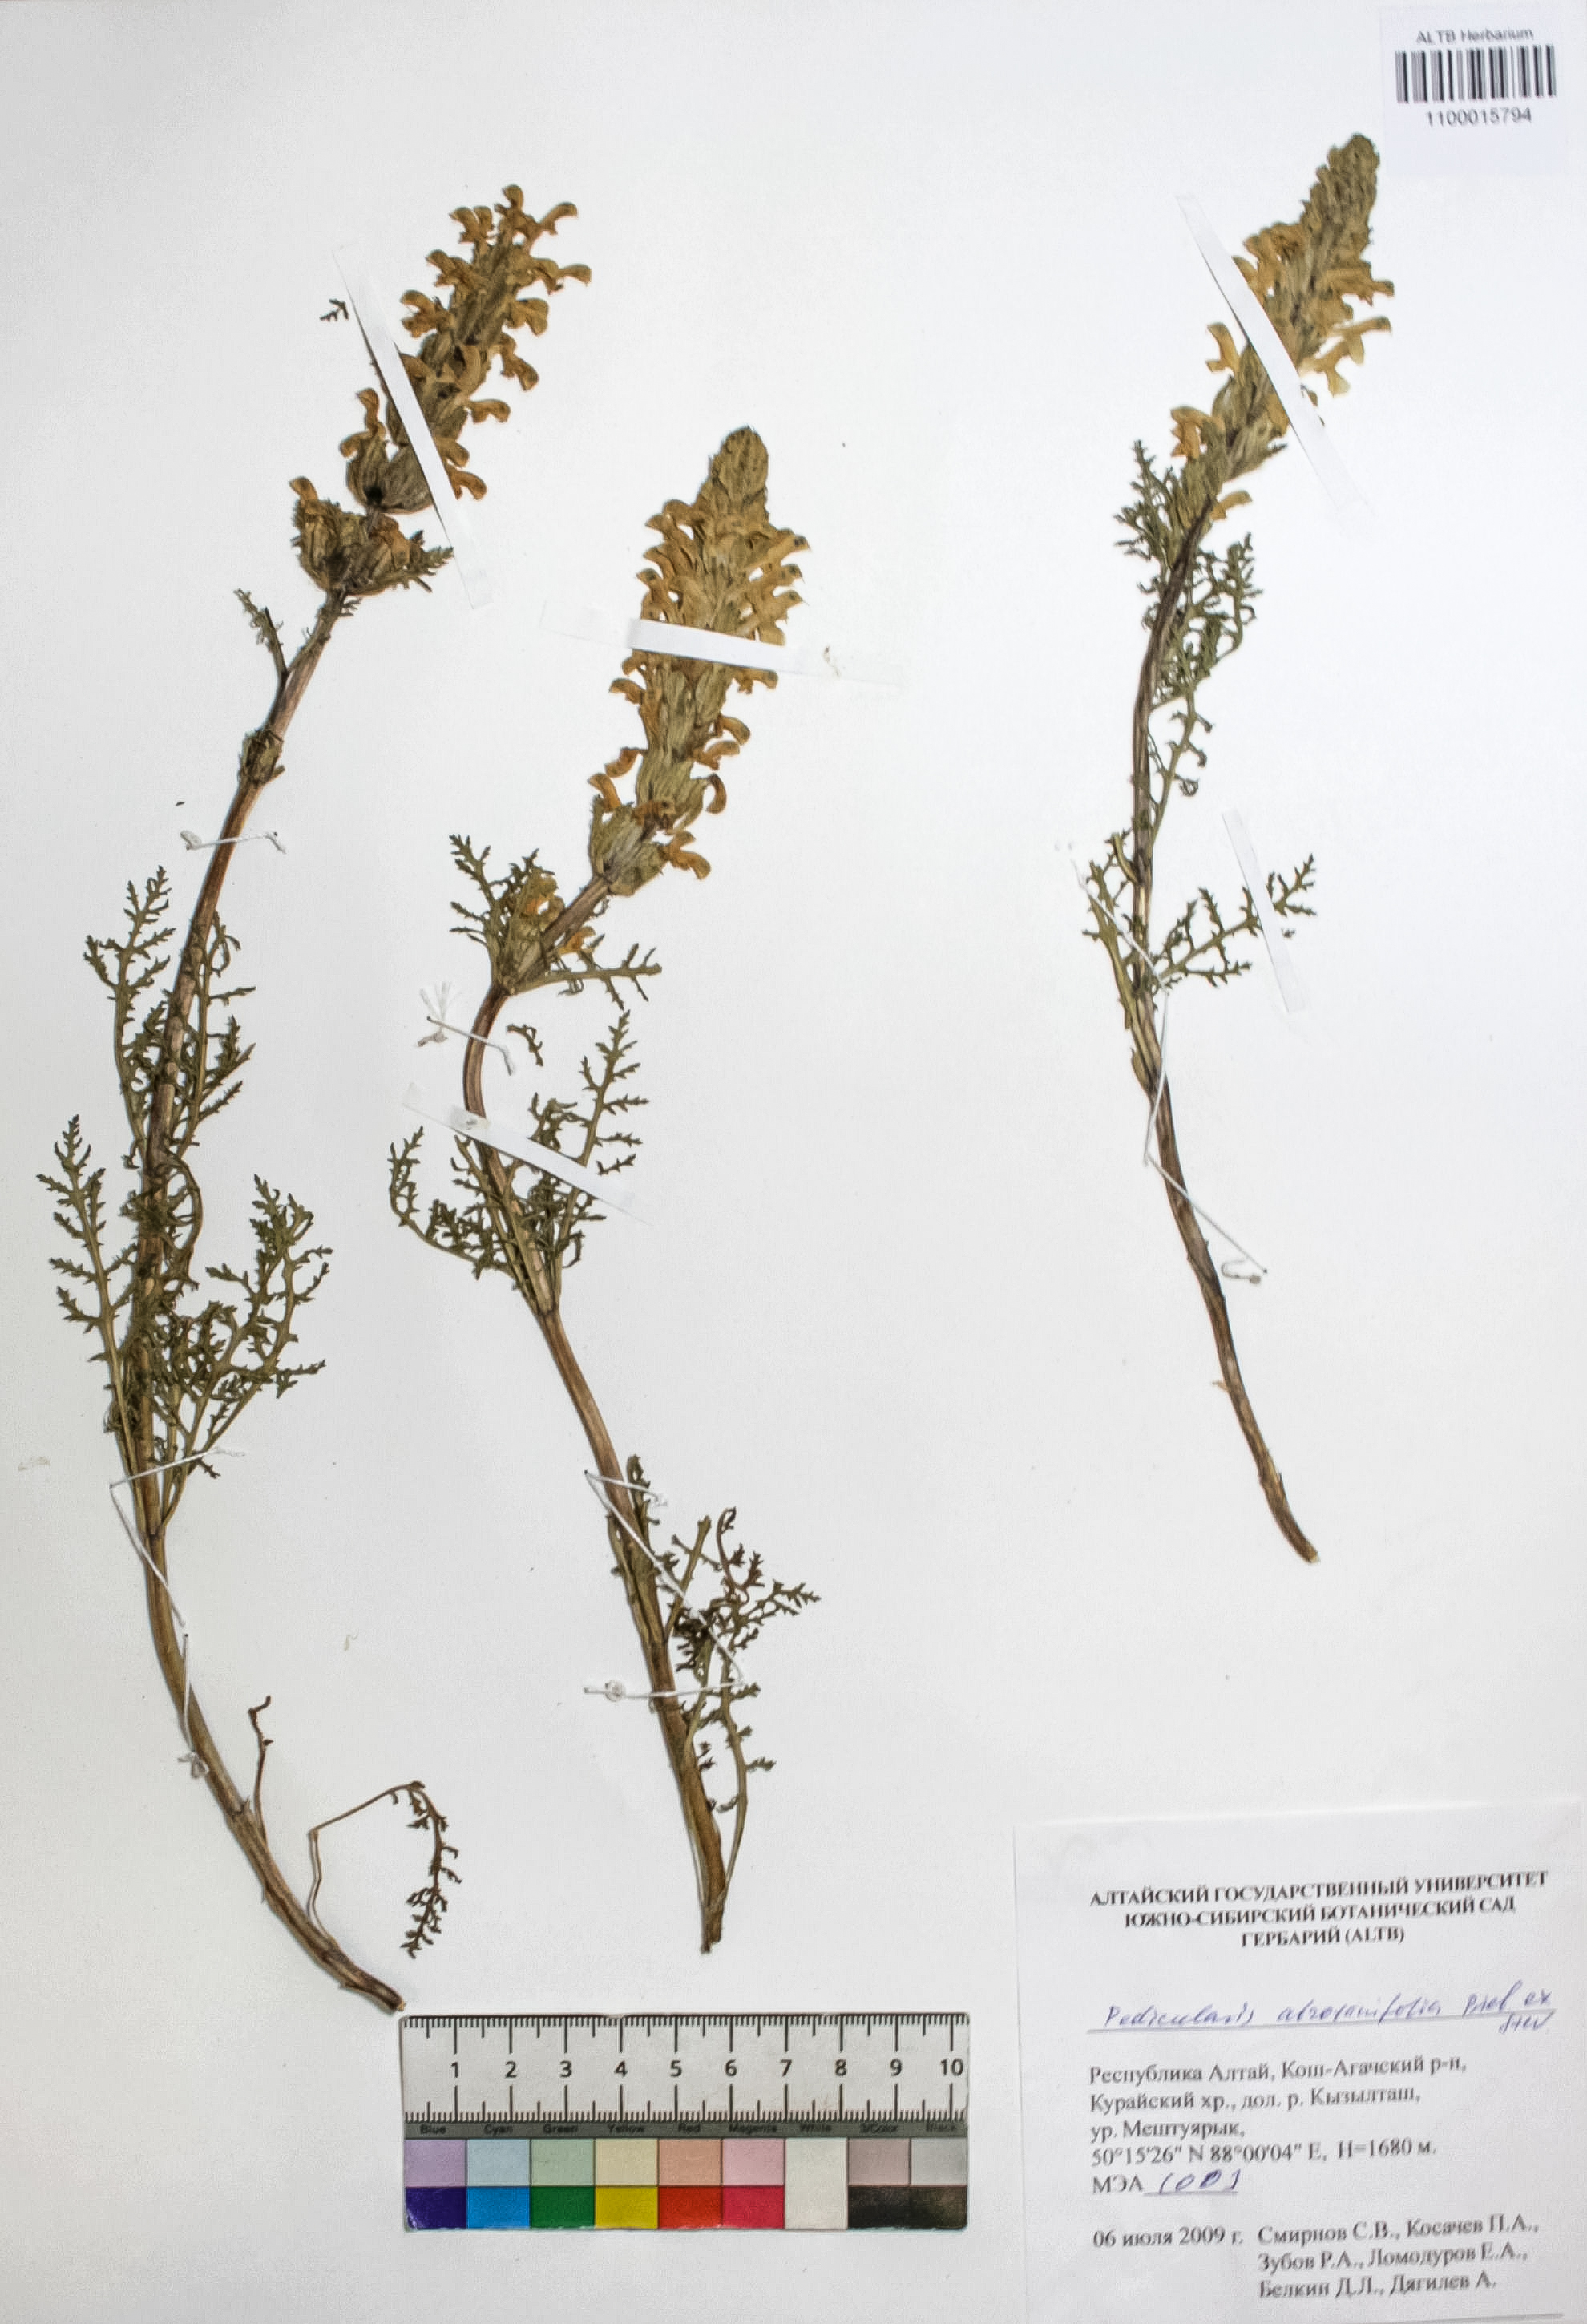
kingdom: Plantae
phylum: Tracheophyta
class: Magnoliopsida
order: Lamiales
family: Orobanchaceae
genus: Pedicularis
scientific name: Pedicularis abrotanifolia
